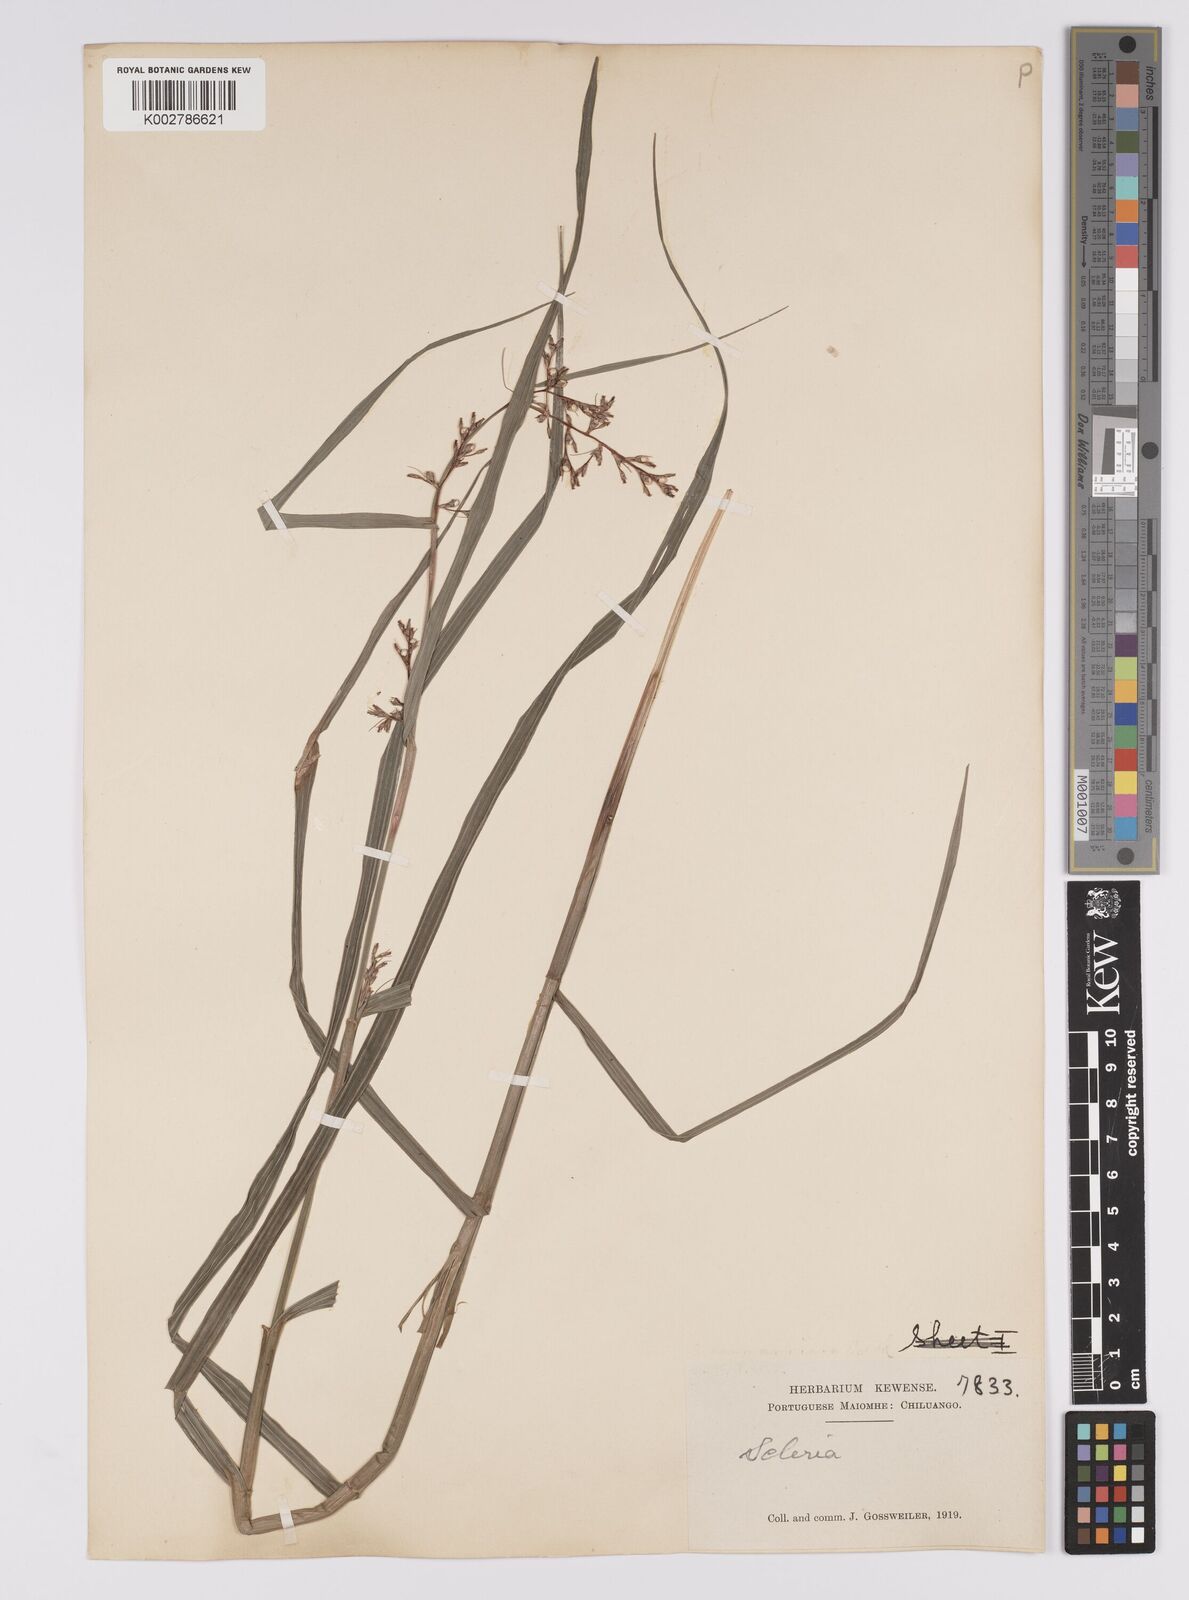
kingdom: Plantae
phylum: Tracheophyta
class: Liliopsida
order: Poales
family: Cyperaceae
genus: Scleria
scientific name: Scleria naumanniana
